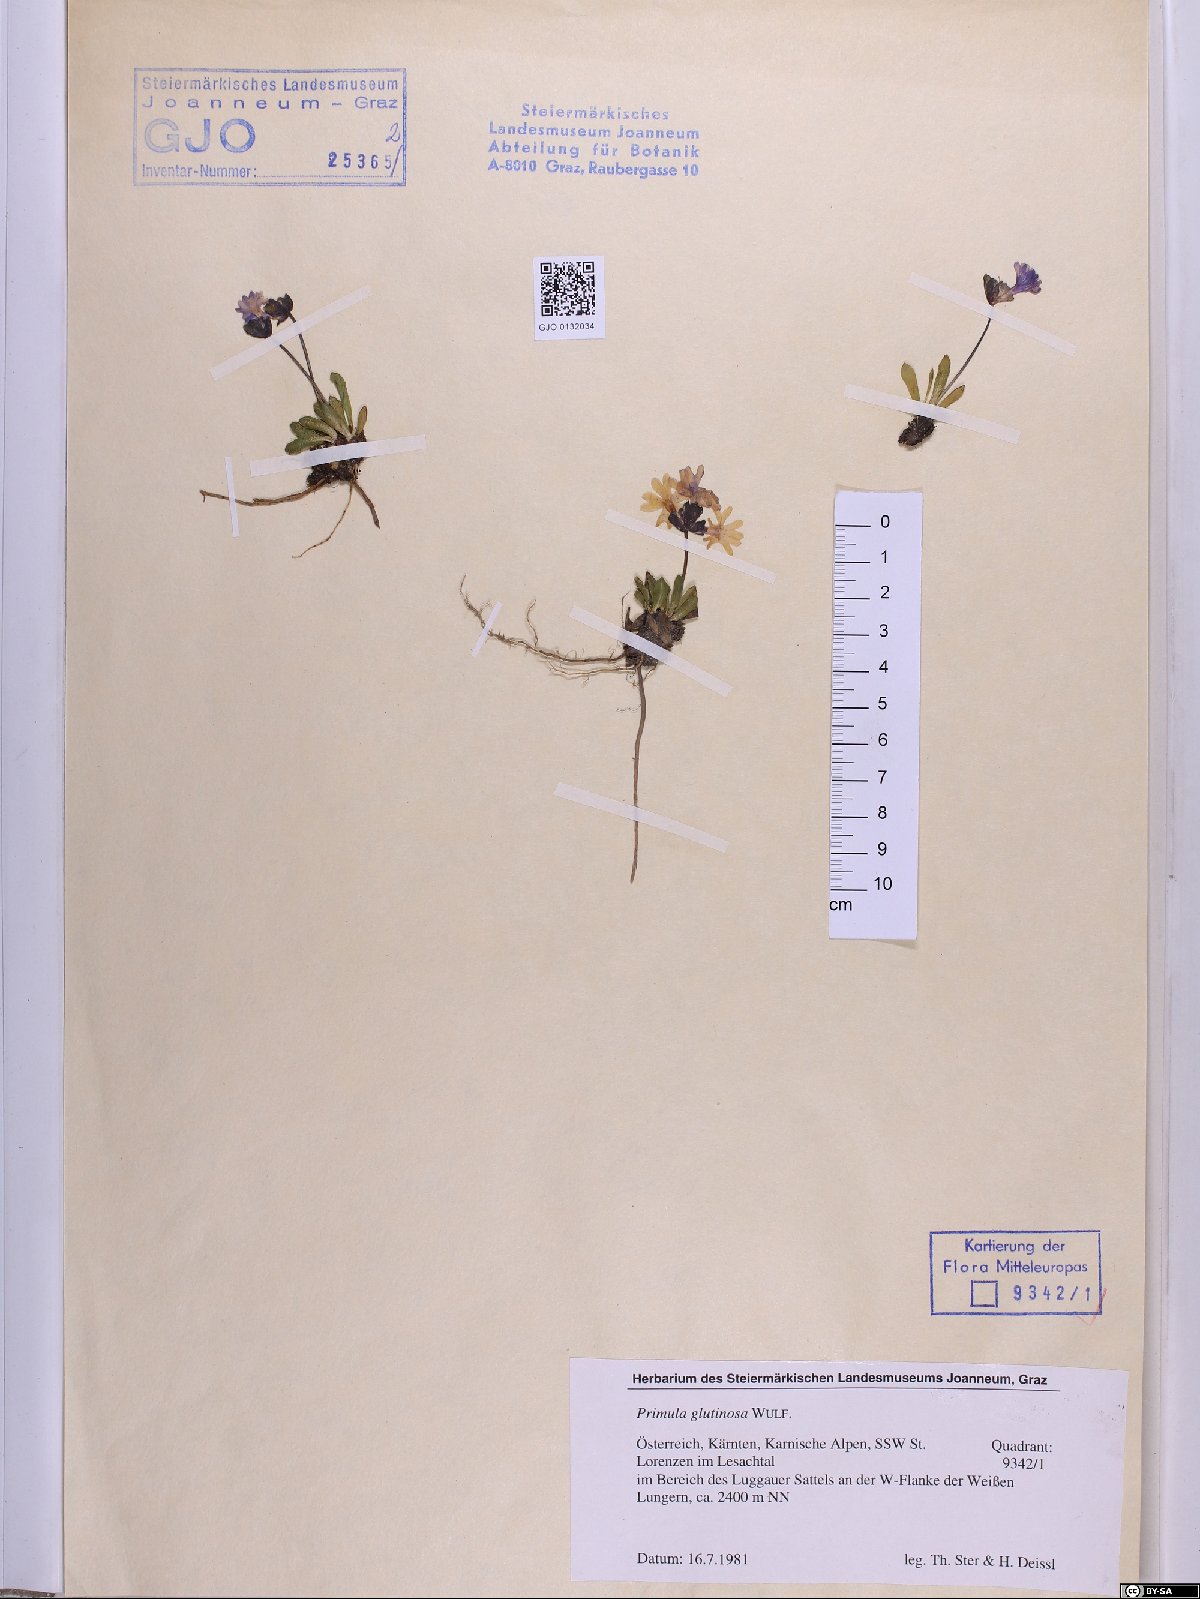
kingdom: Plantae
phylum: Tracheophyta
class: Magnoliopsida
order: Ericales
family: Primulaceae
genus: Primula
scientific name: Primula glutinosa
